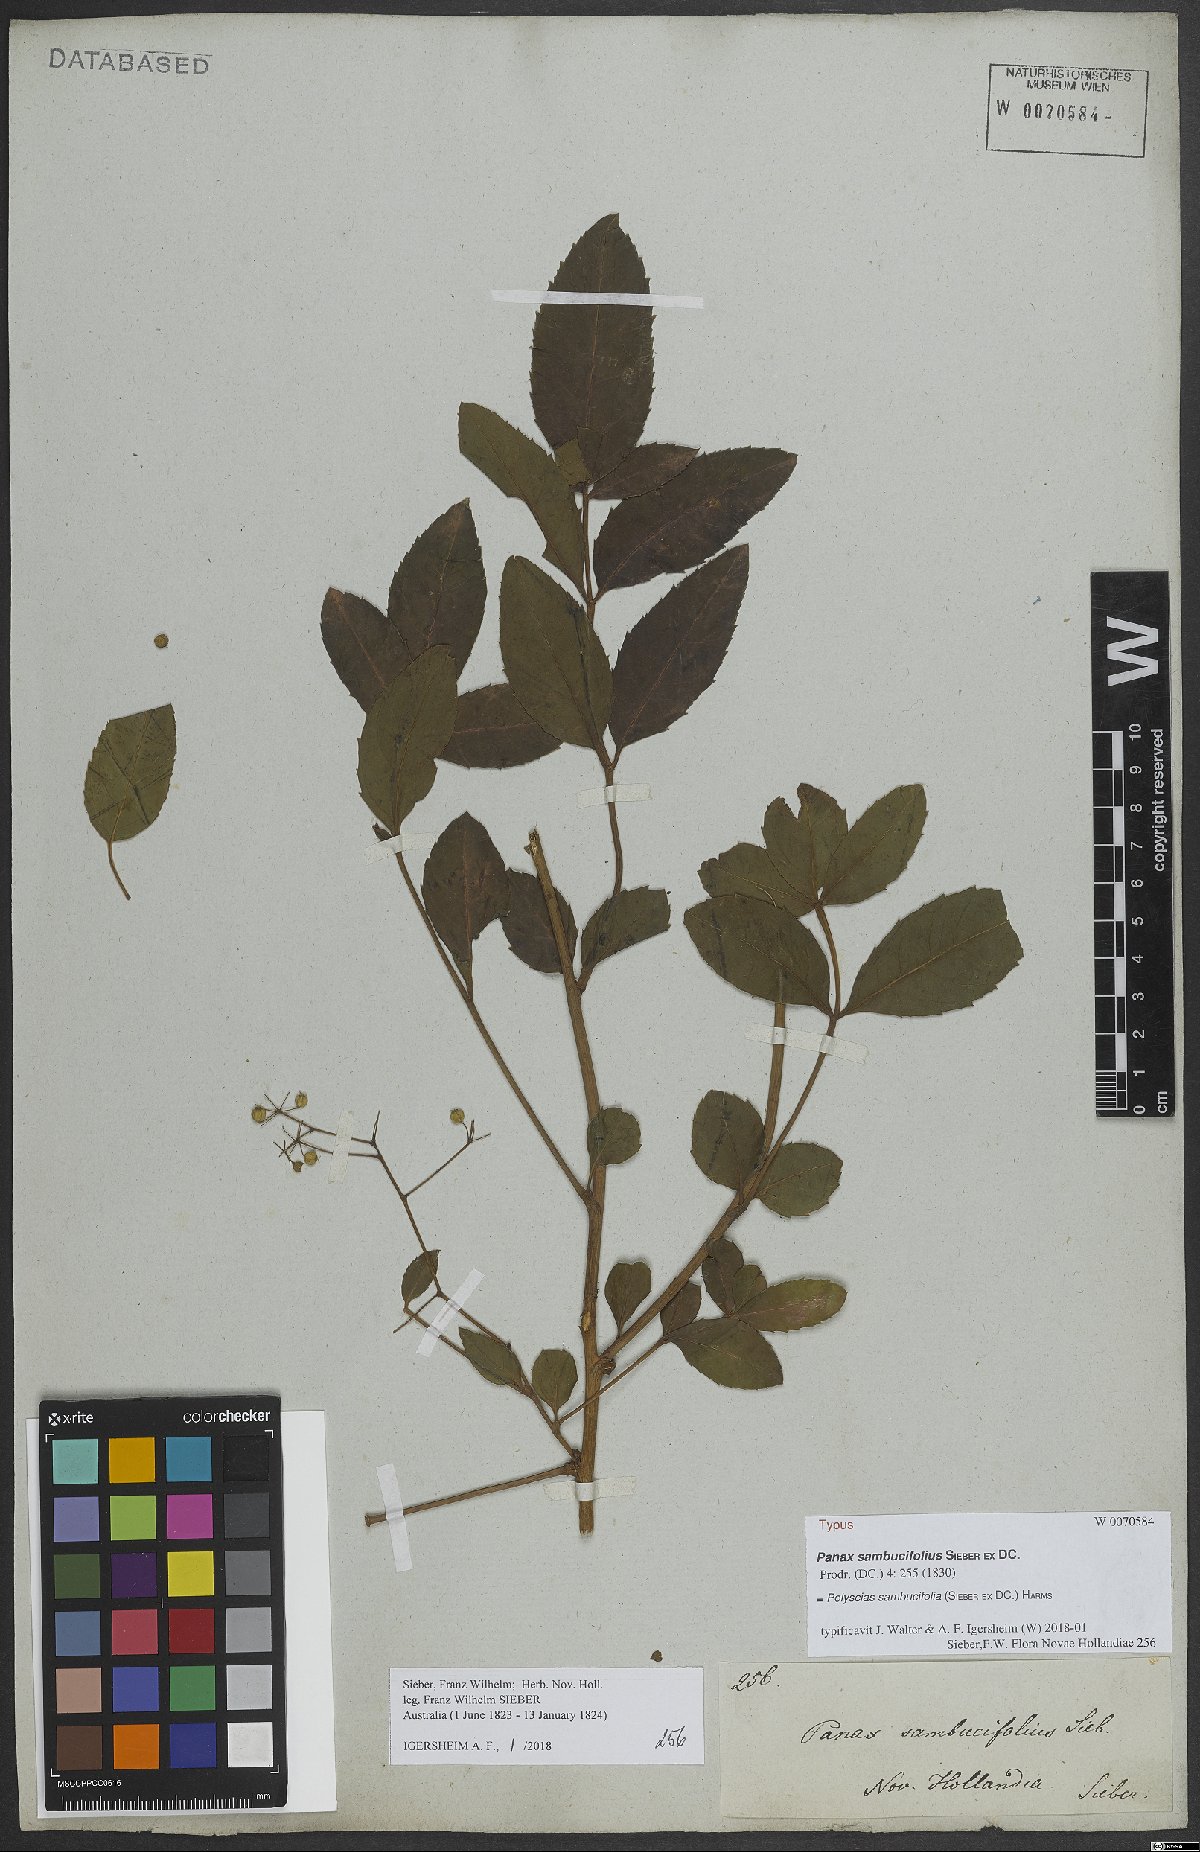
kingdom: Plantae
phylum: Tracheophyta
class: Magnoliopsida
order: Apiales
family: Araliaceae
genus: Polyscias
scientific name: Polyscias sambucifolia
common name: Elderberry-ash
